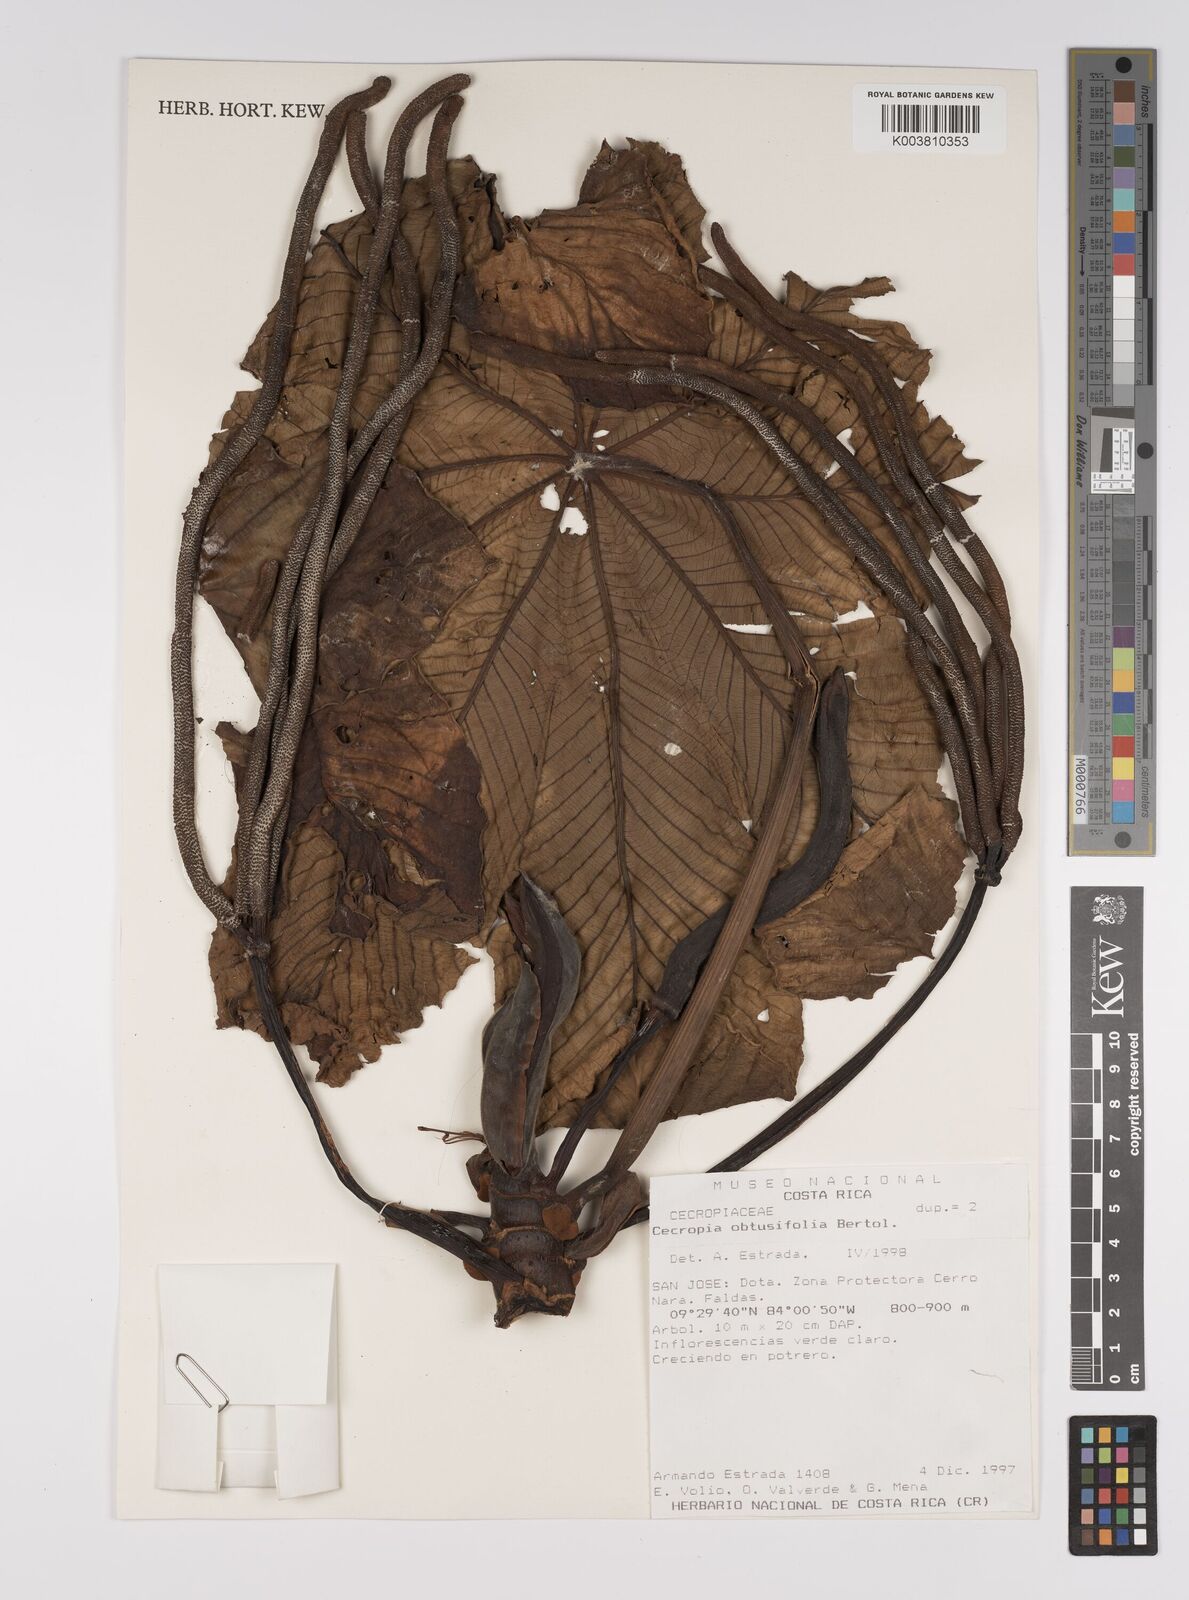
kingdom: Plantae
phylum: Tracheophyta
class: Magnoliopsida
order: Rosales
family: Urticaceae
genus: Cecropia
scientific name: Cecropia obtusifolia
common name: Trumpet tree
